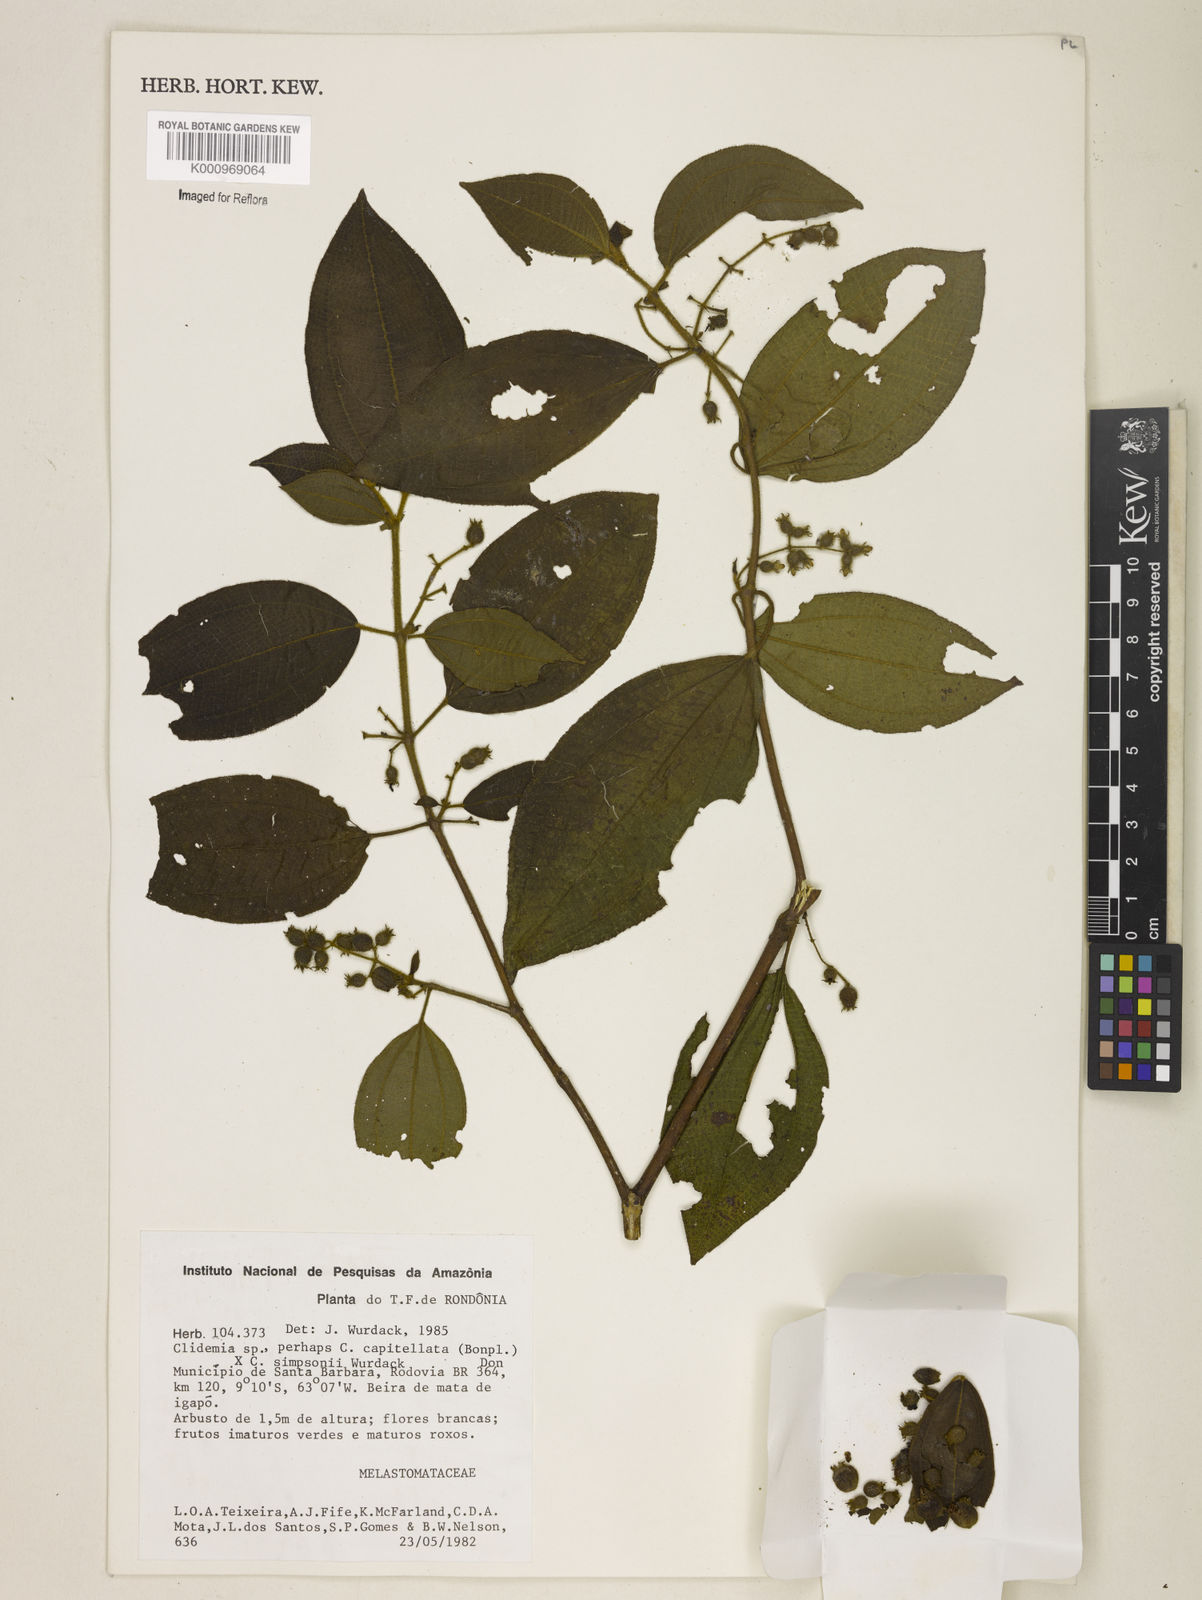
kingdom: Plantae
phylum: Tracheophyta
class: Magnoliopsida
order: Myrtales
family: Melastomataceae
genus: Miconia
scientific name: Miconia dependens
